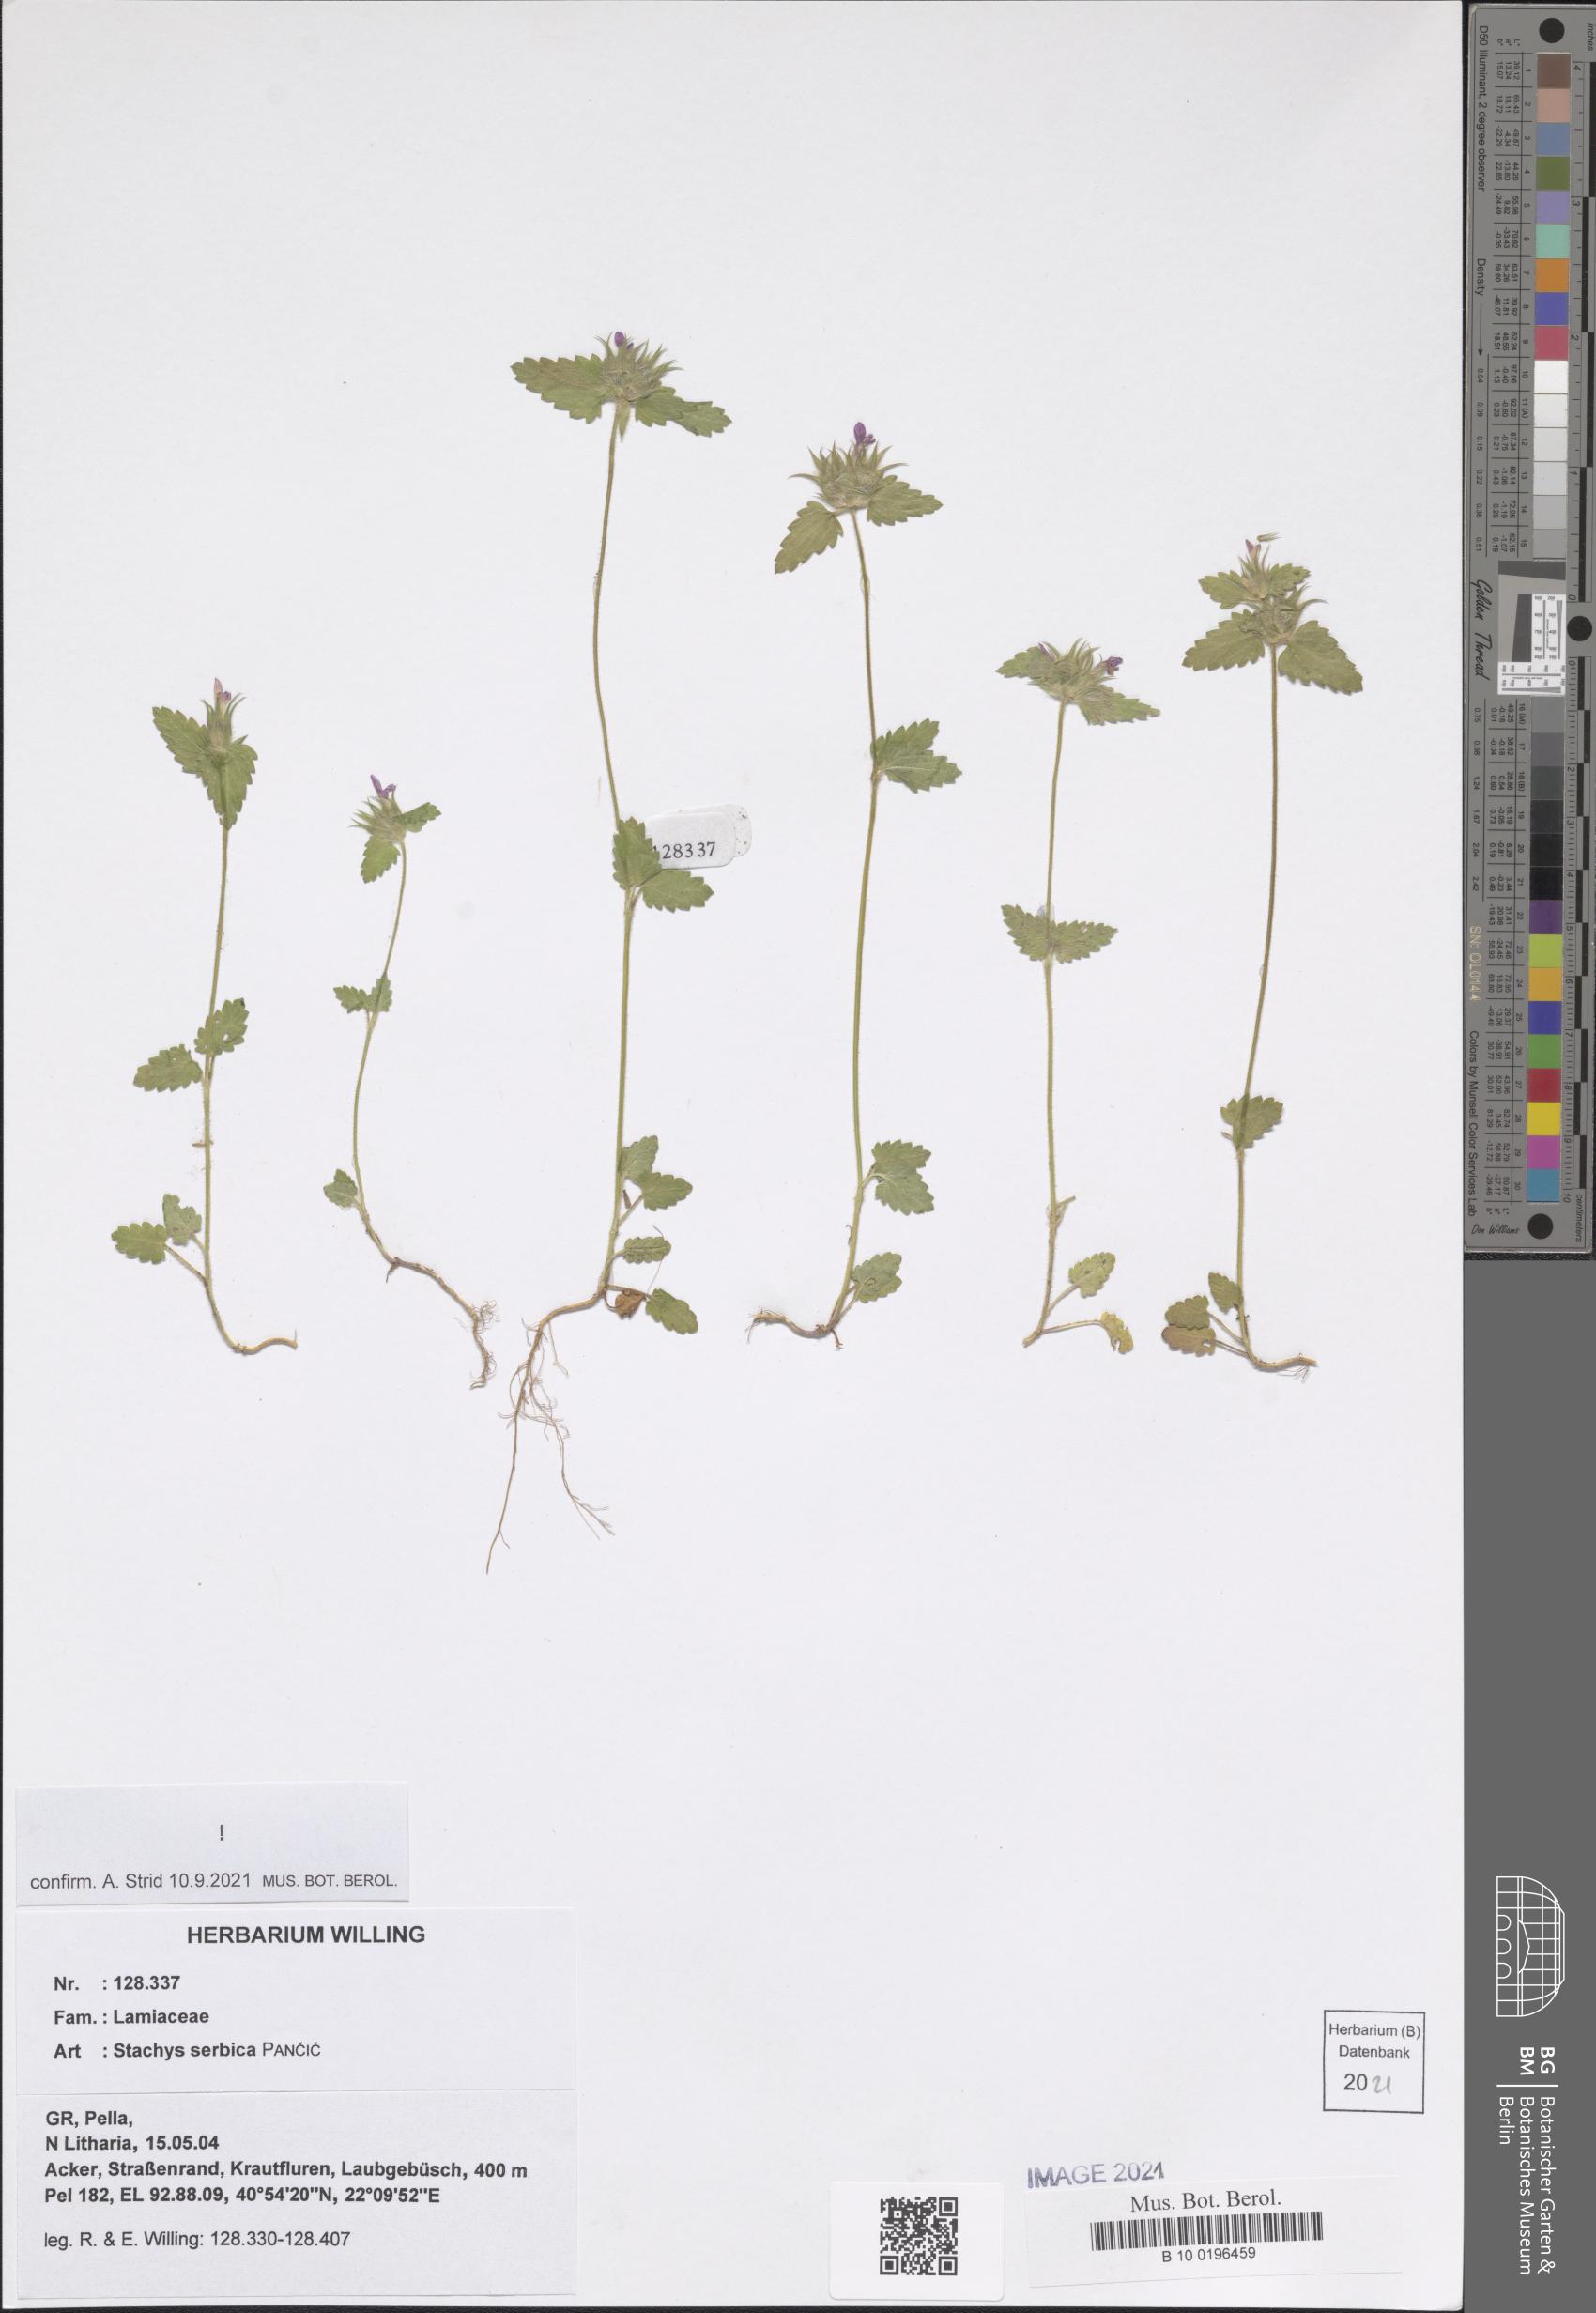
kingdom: Plantae
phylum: Tracheophyta
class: Magnoliopsida
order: Lamiales
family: Lamiaceae
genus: Stachys
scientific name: Stachys serbica
